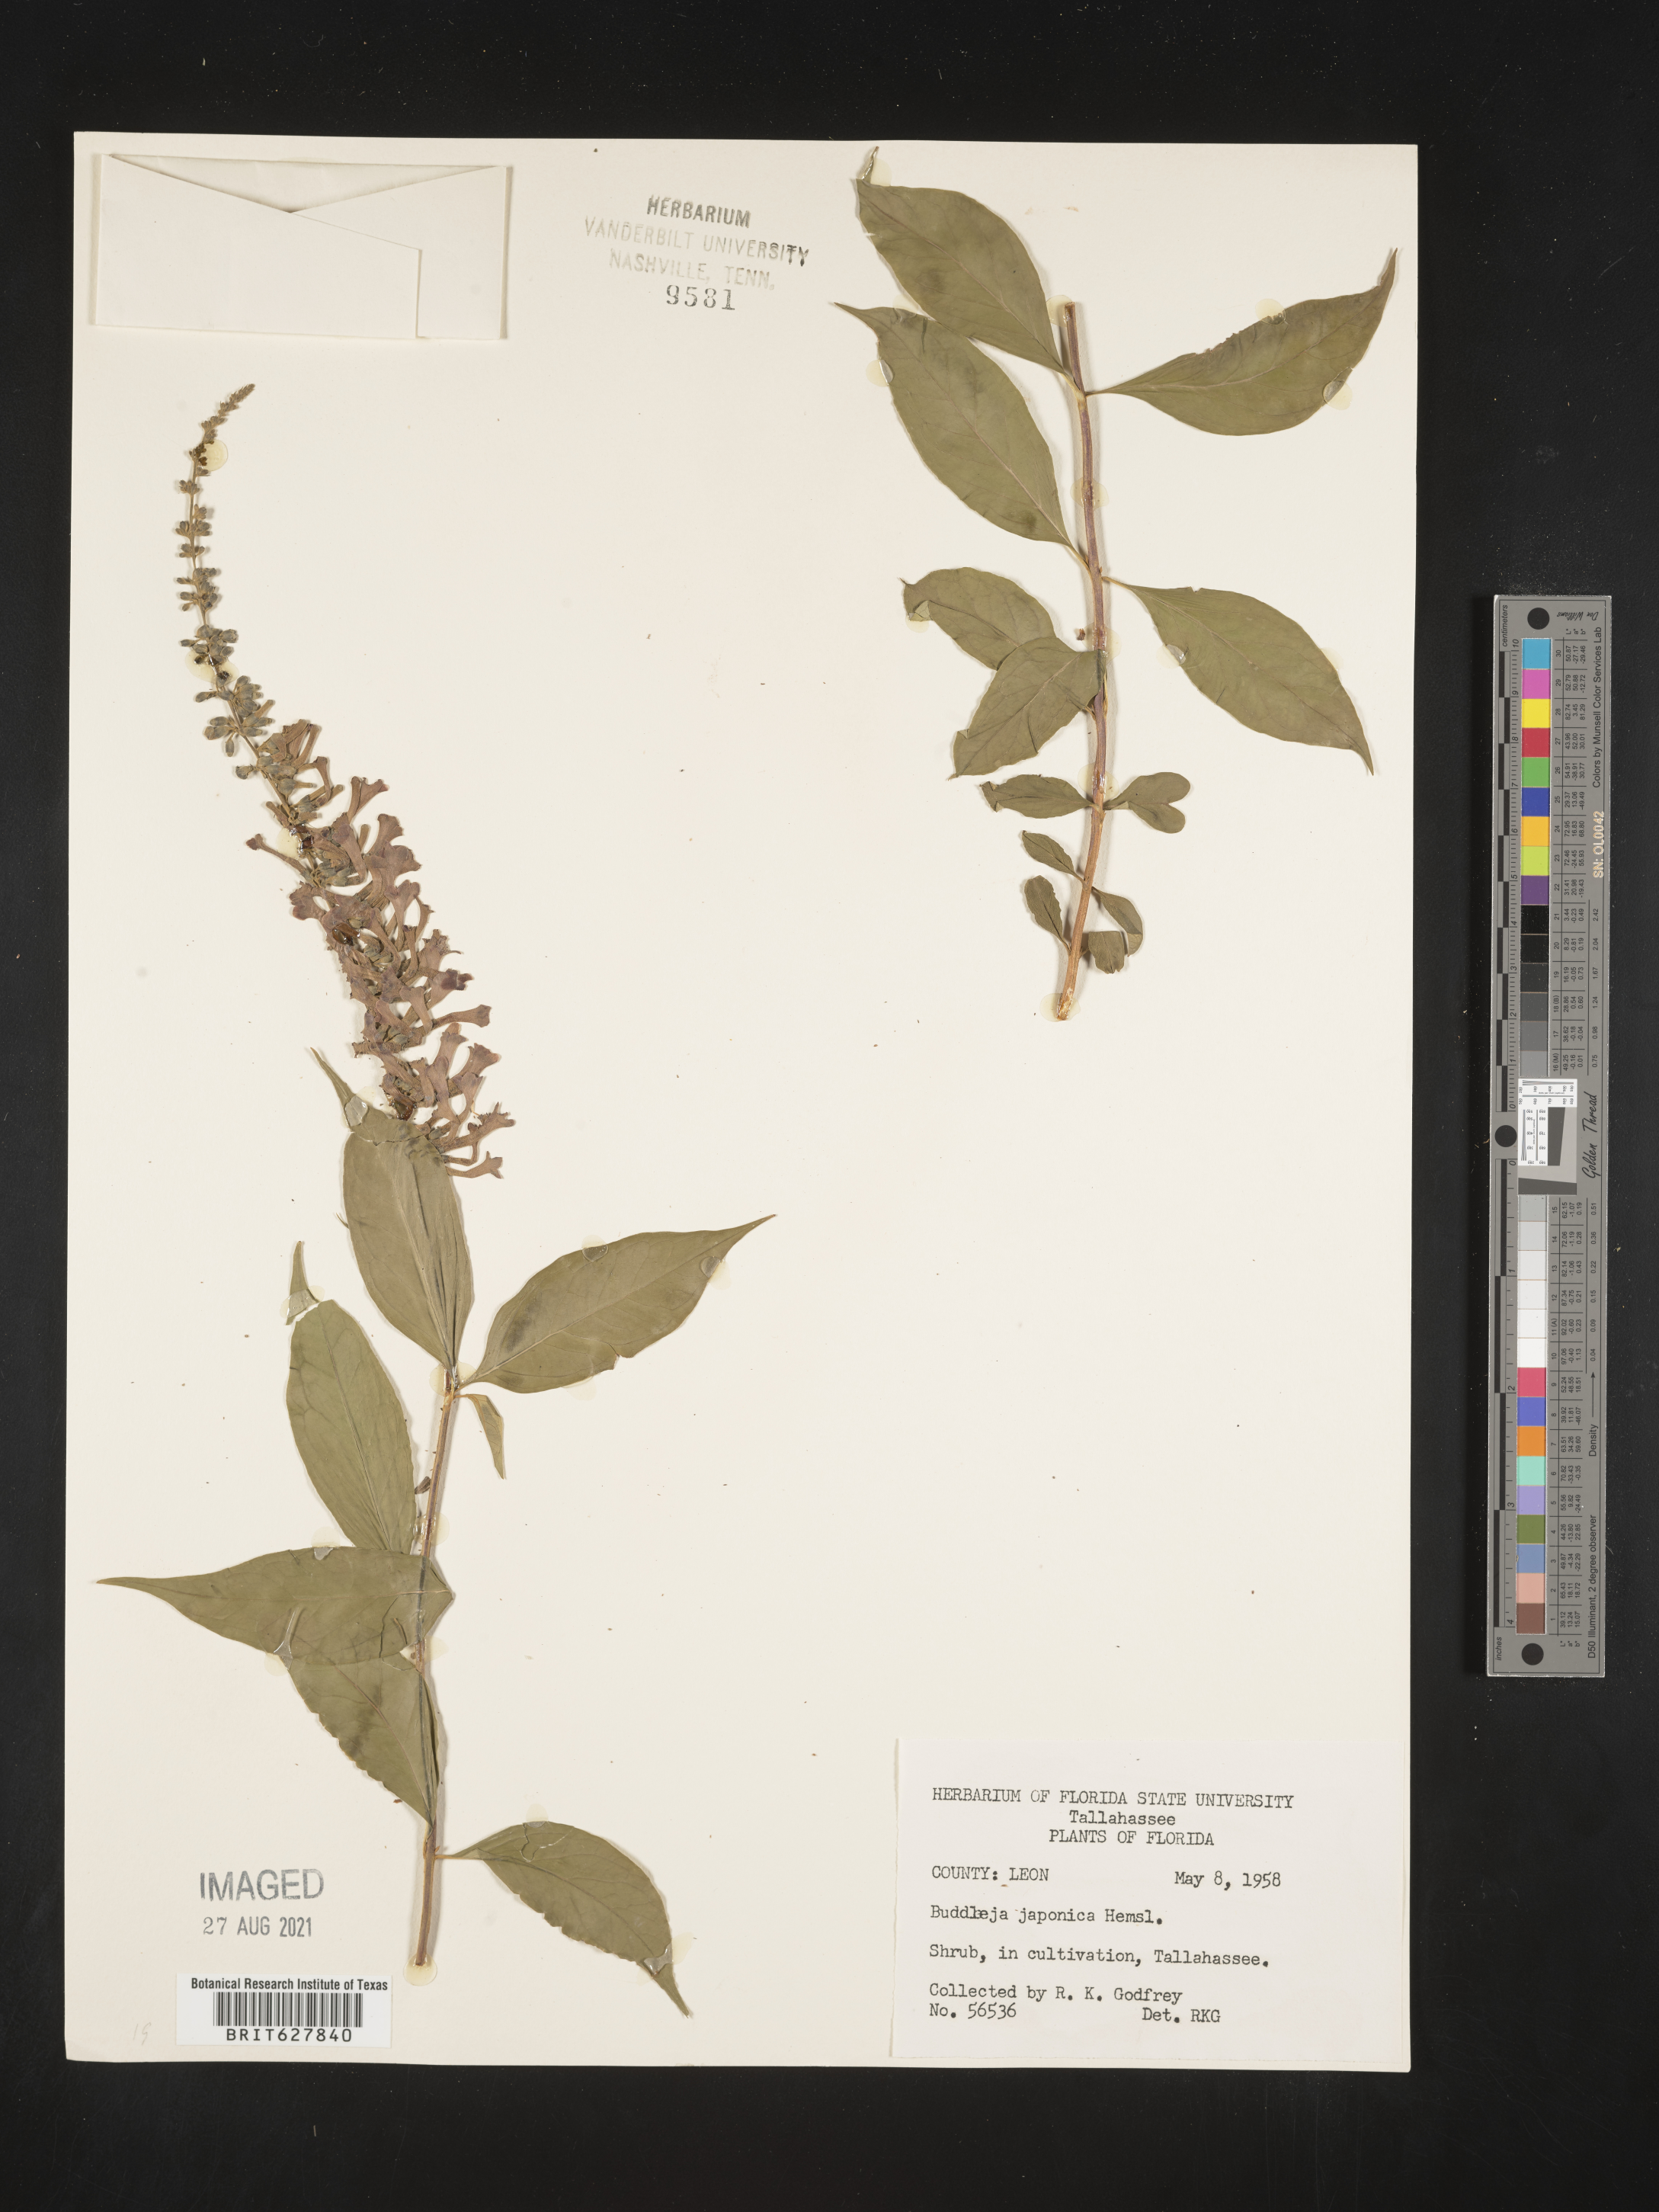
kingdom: Plantae
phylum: Tracheophyta
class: Magnoliopsida
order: Lamiales
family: Scrophulariaceae
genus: Buddleja
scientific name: Buddleja
